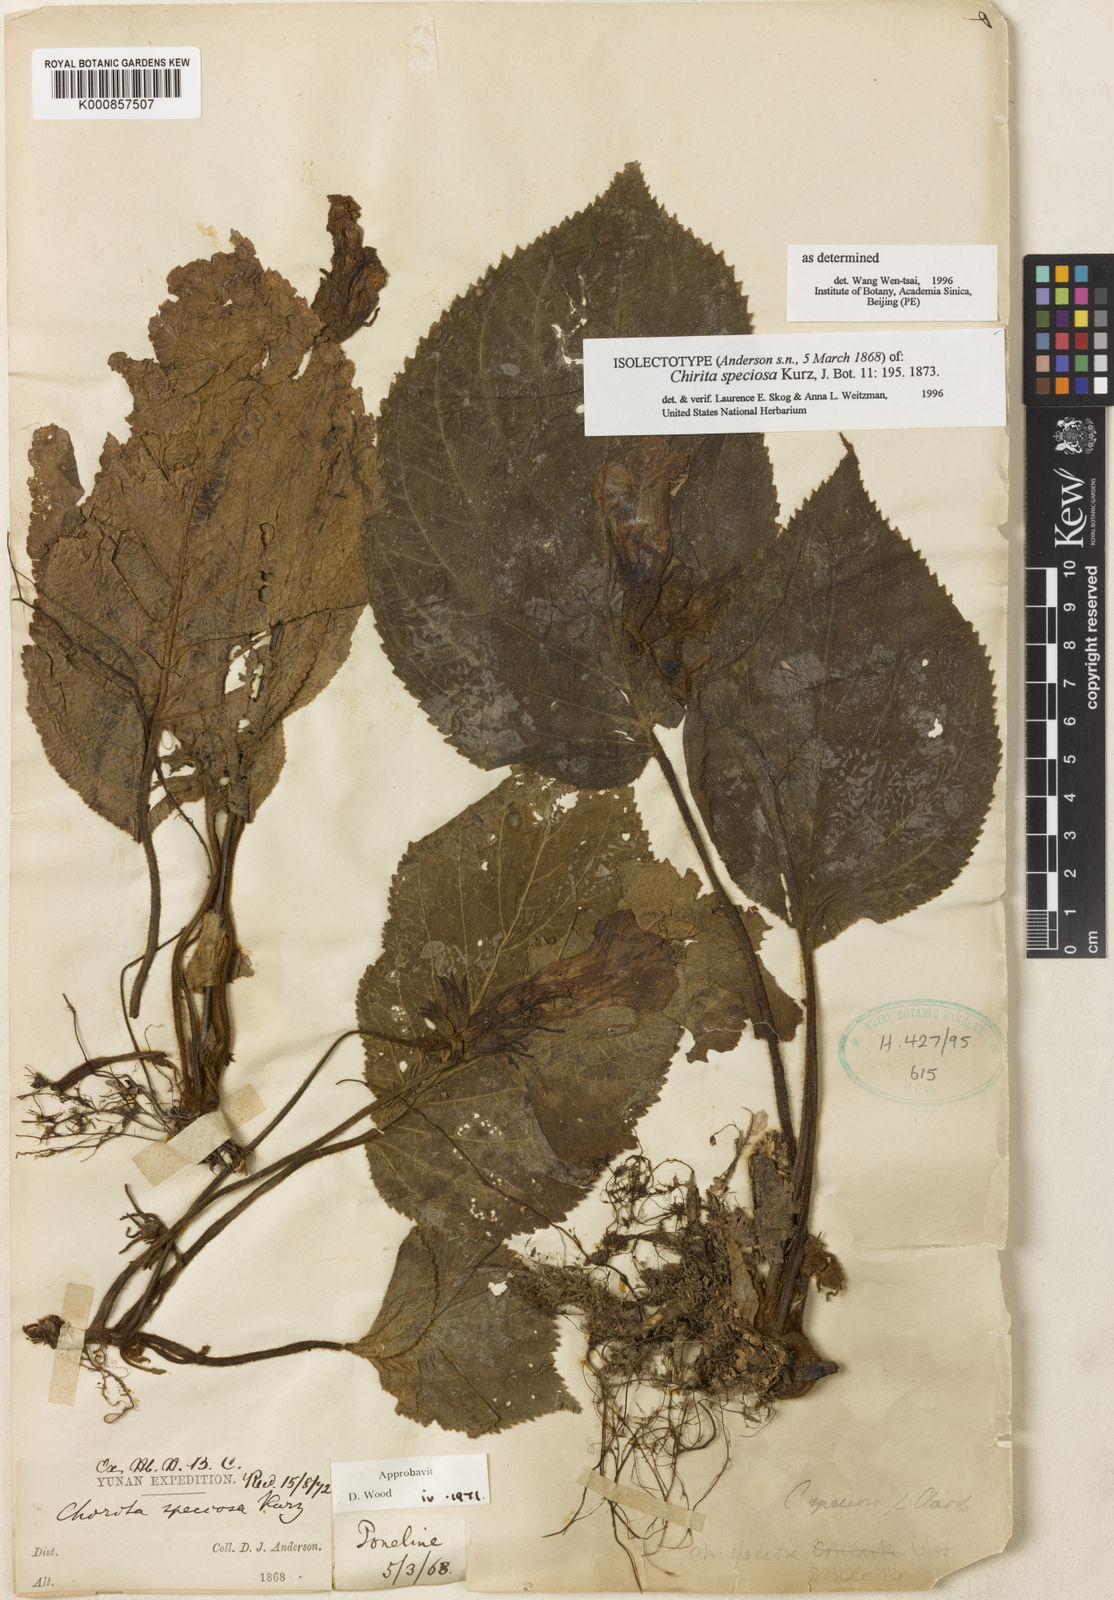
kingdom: Plantae
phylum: Tracheophyta
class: Magnoliopsida
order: Lamiales
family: Gesneriaceae
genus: Henckelia
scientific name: Henckelia speciosa
